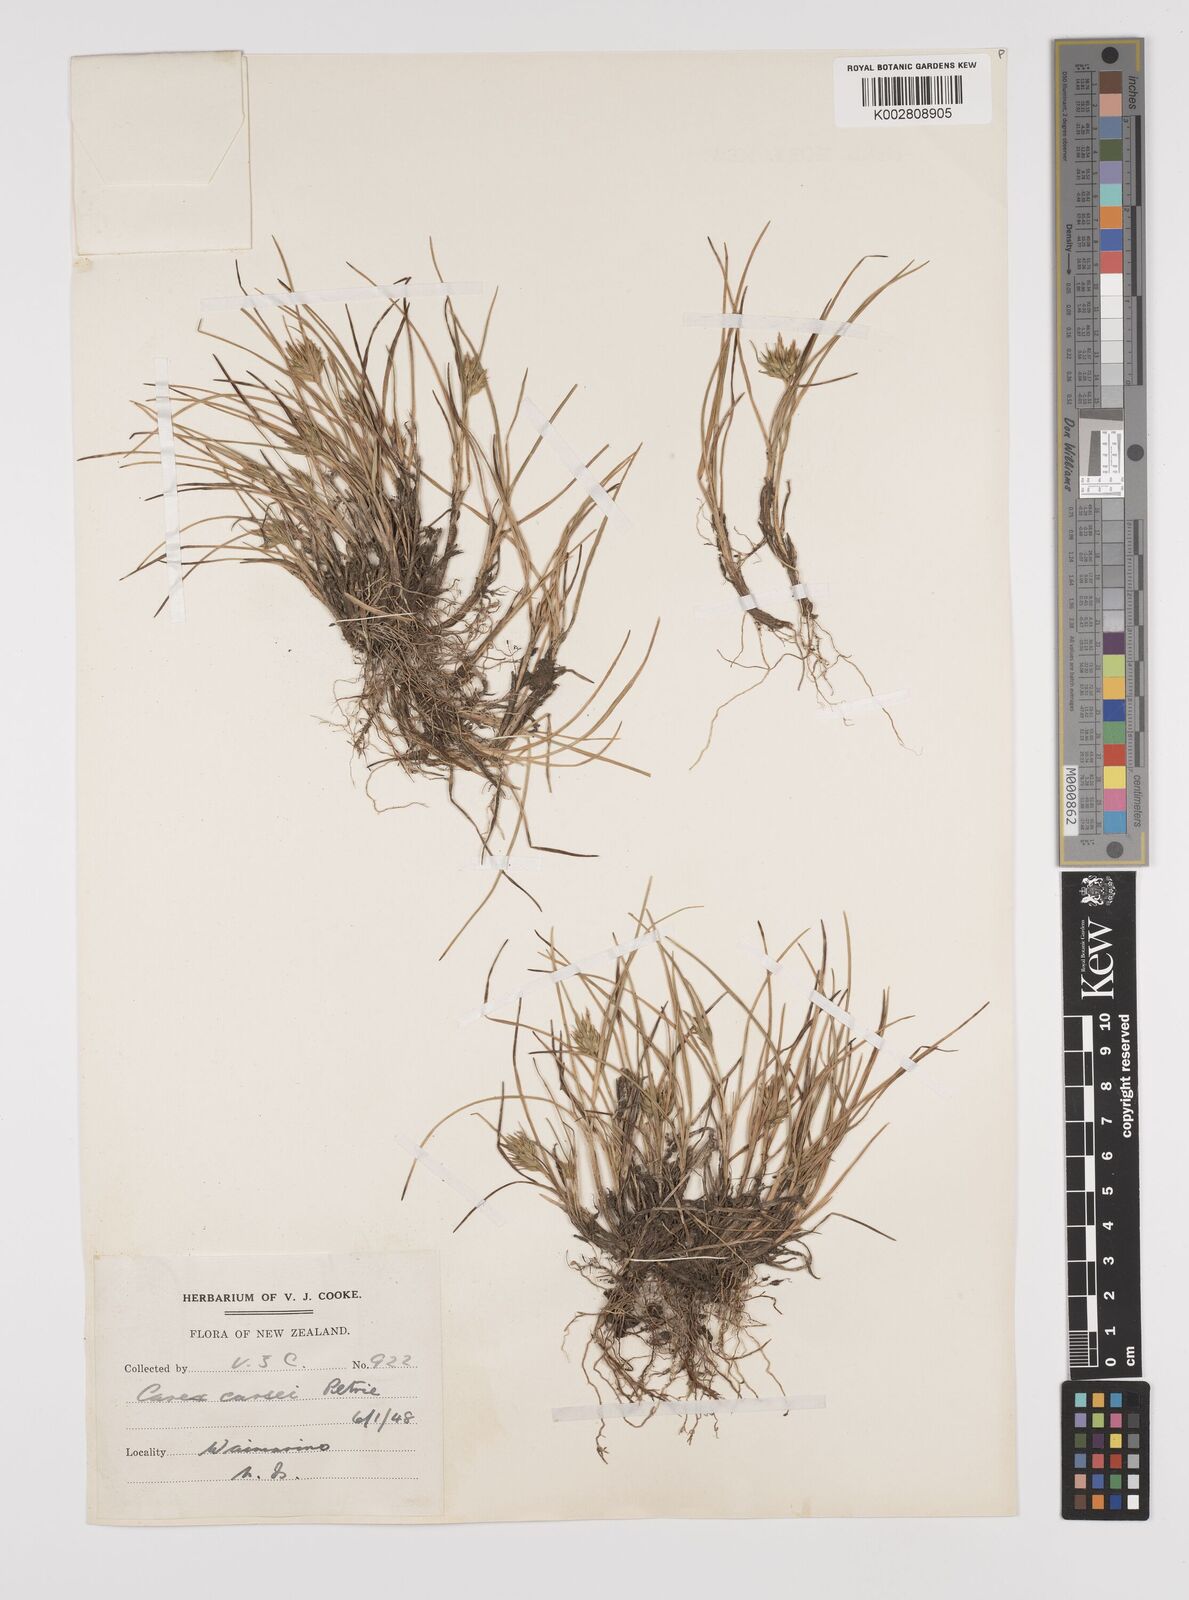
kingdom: Plantae
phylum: Tracheophyta
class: Liliopsida
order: Poales
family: Cyperaceae
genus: Carex
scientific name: Carex michauxiana
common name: Michaux's sedge
